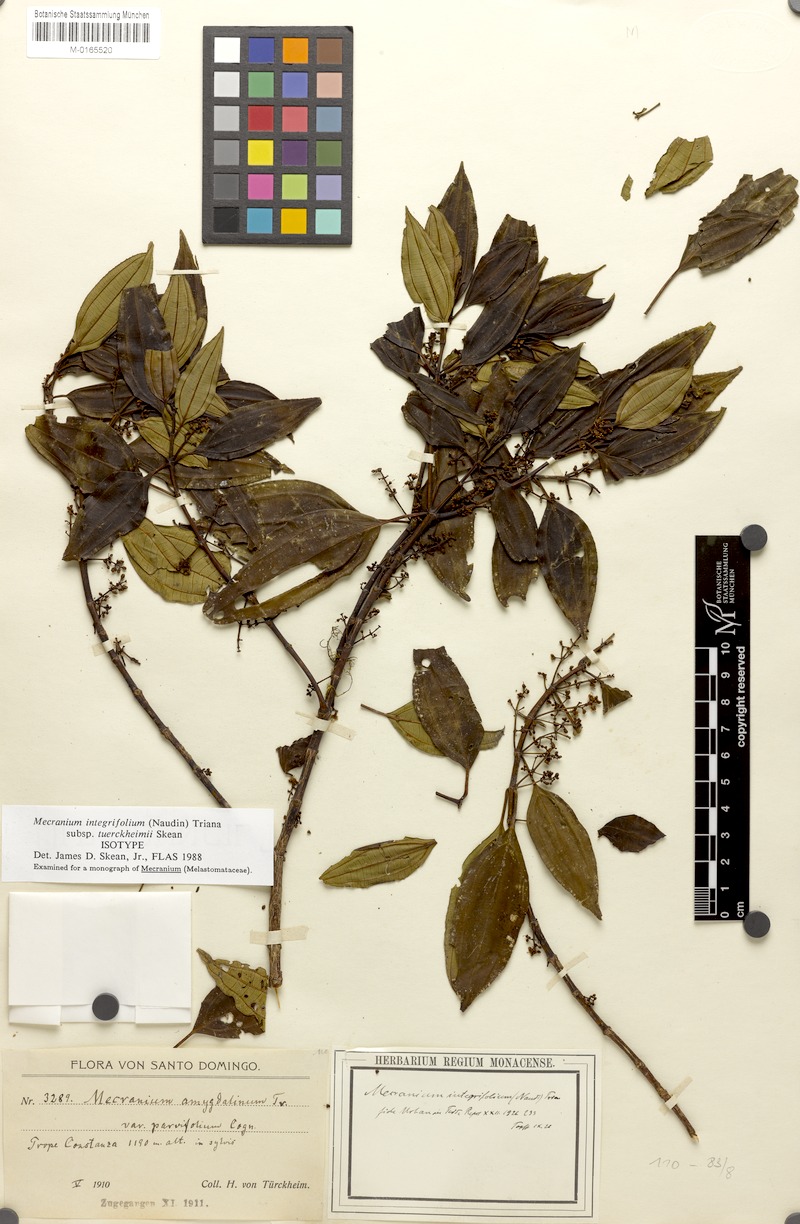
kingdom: Plantae
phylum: Tracheophyta
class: Magnoliopsida
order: Myrtales
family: Melastomataceae
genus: Miconia
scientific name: Miconia antillana
